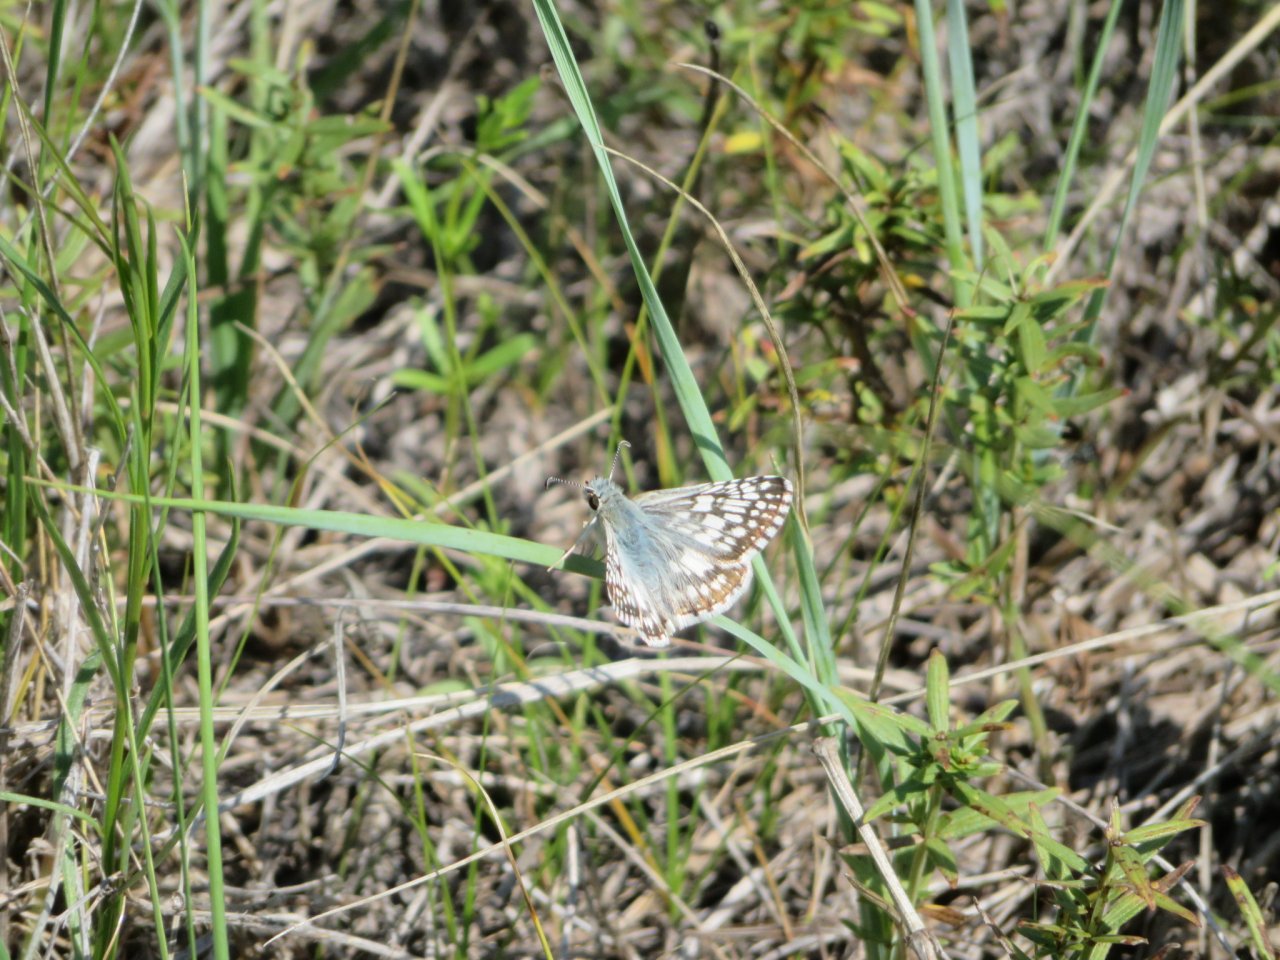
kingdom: Animalia
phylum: Arthropoda
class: Insecta
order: Lepidoptera
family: Hesperiidae
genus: Pyrgus
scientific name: Pyrgus communis
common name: Common Checkered-Skipper
